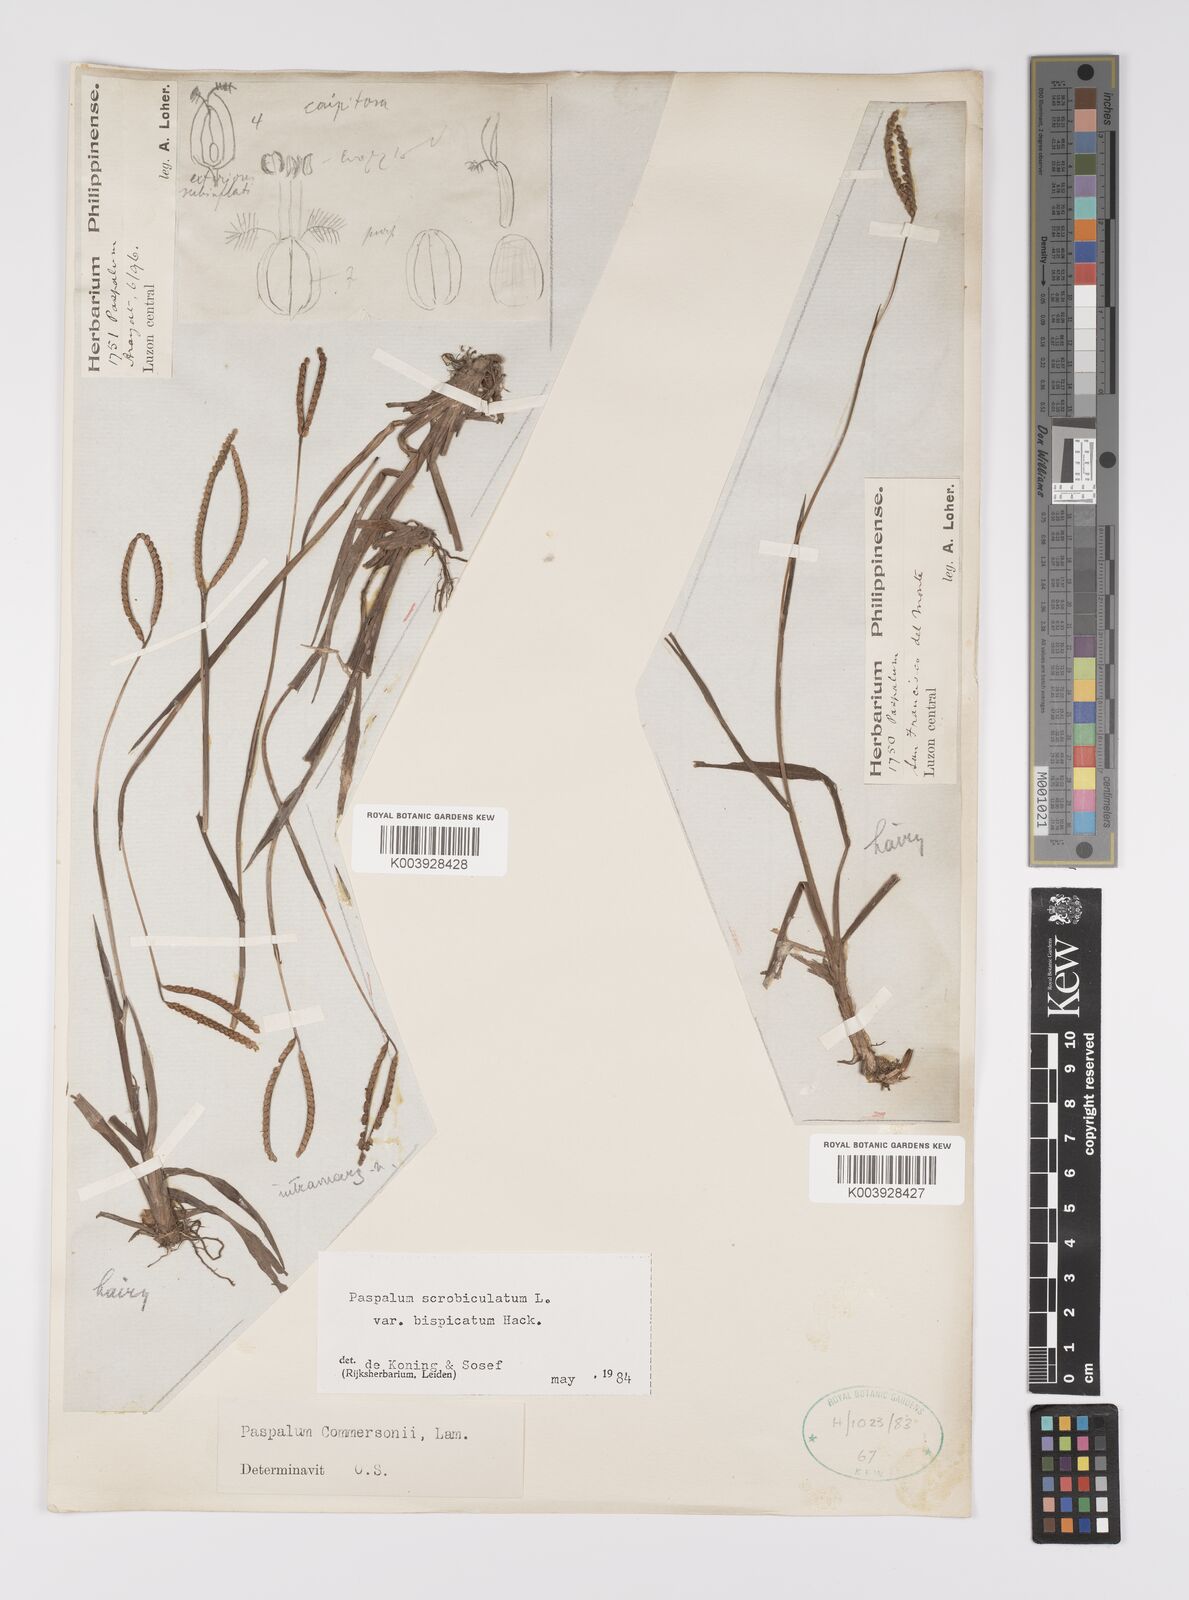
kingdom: Plantae
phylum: Tracheophyta
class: Liliopsida
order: Poales
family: Poaceae
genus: Paspalum
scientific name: Paspalum scrobiculatum
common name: Kodo millet
